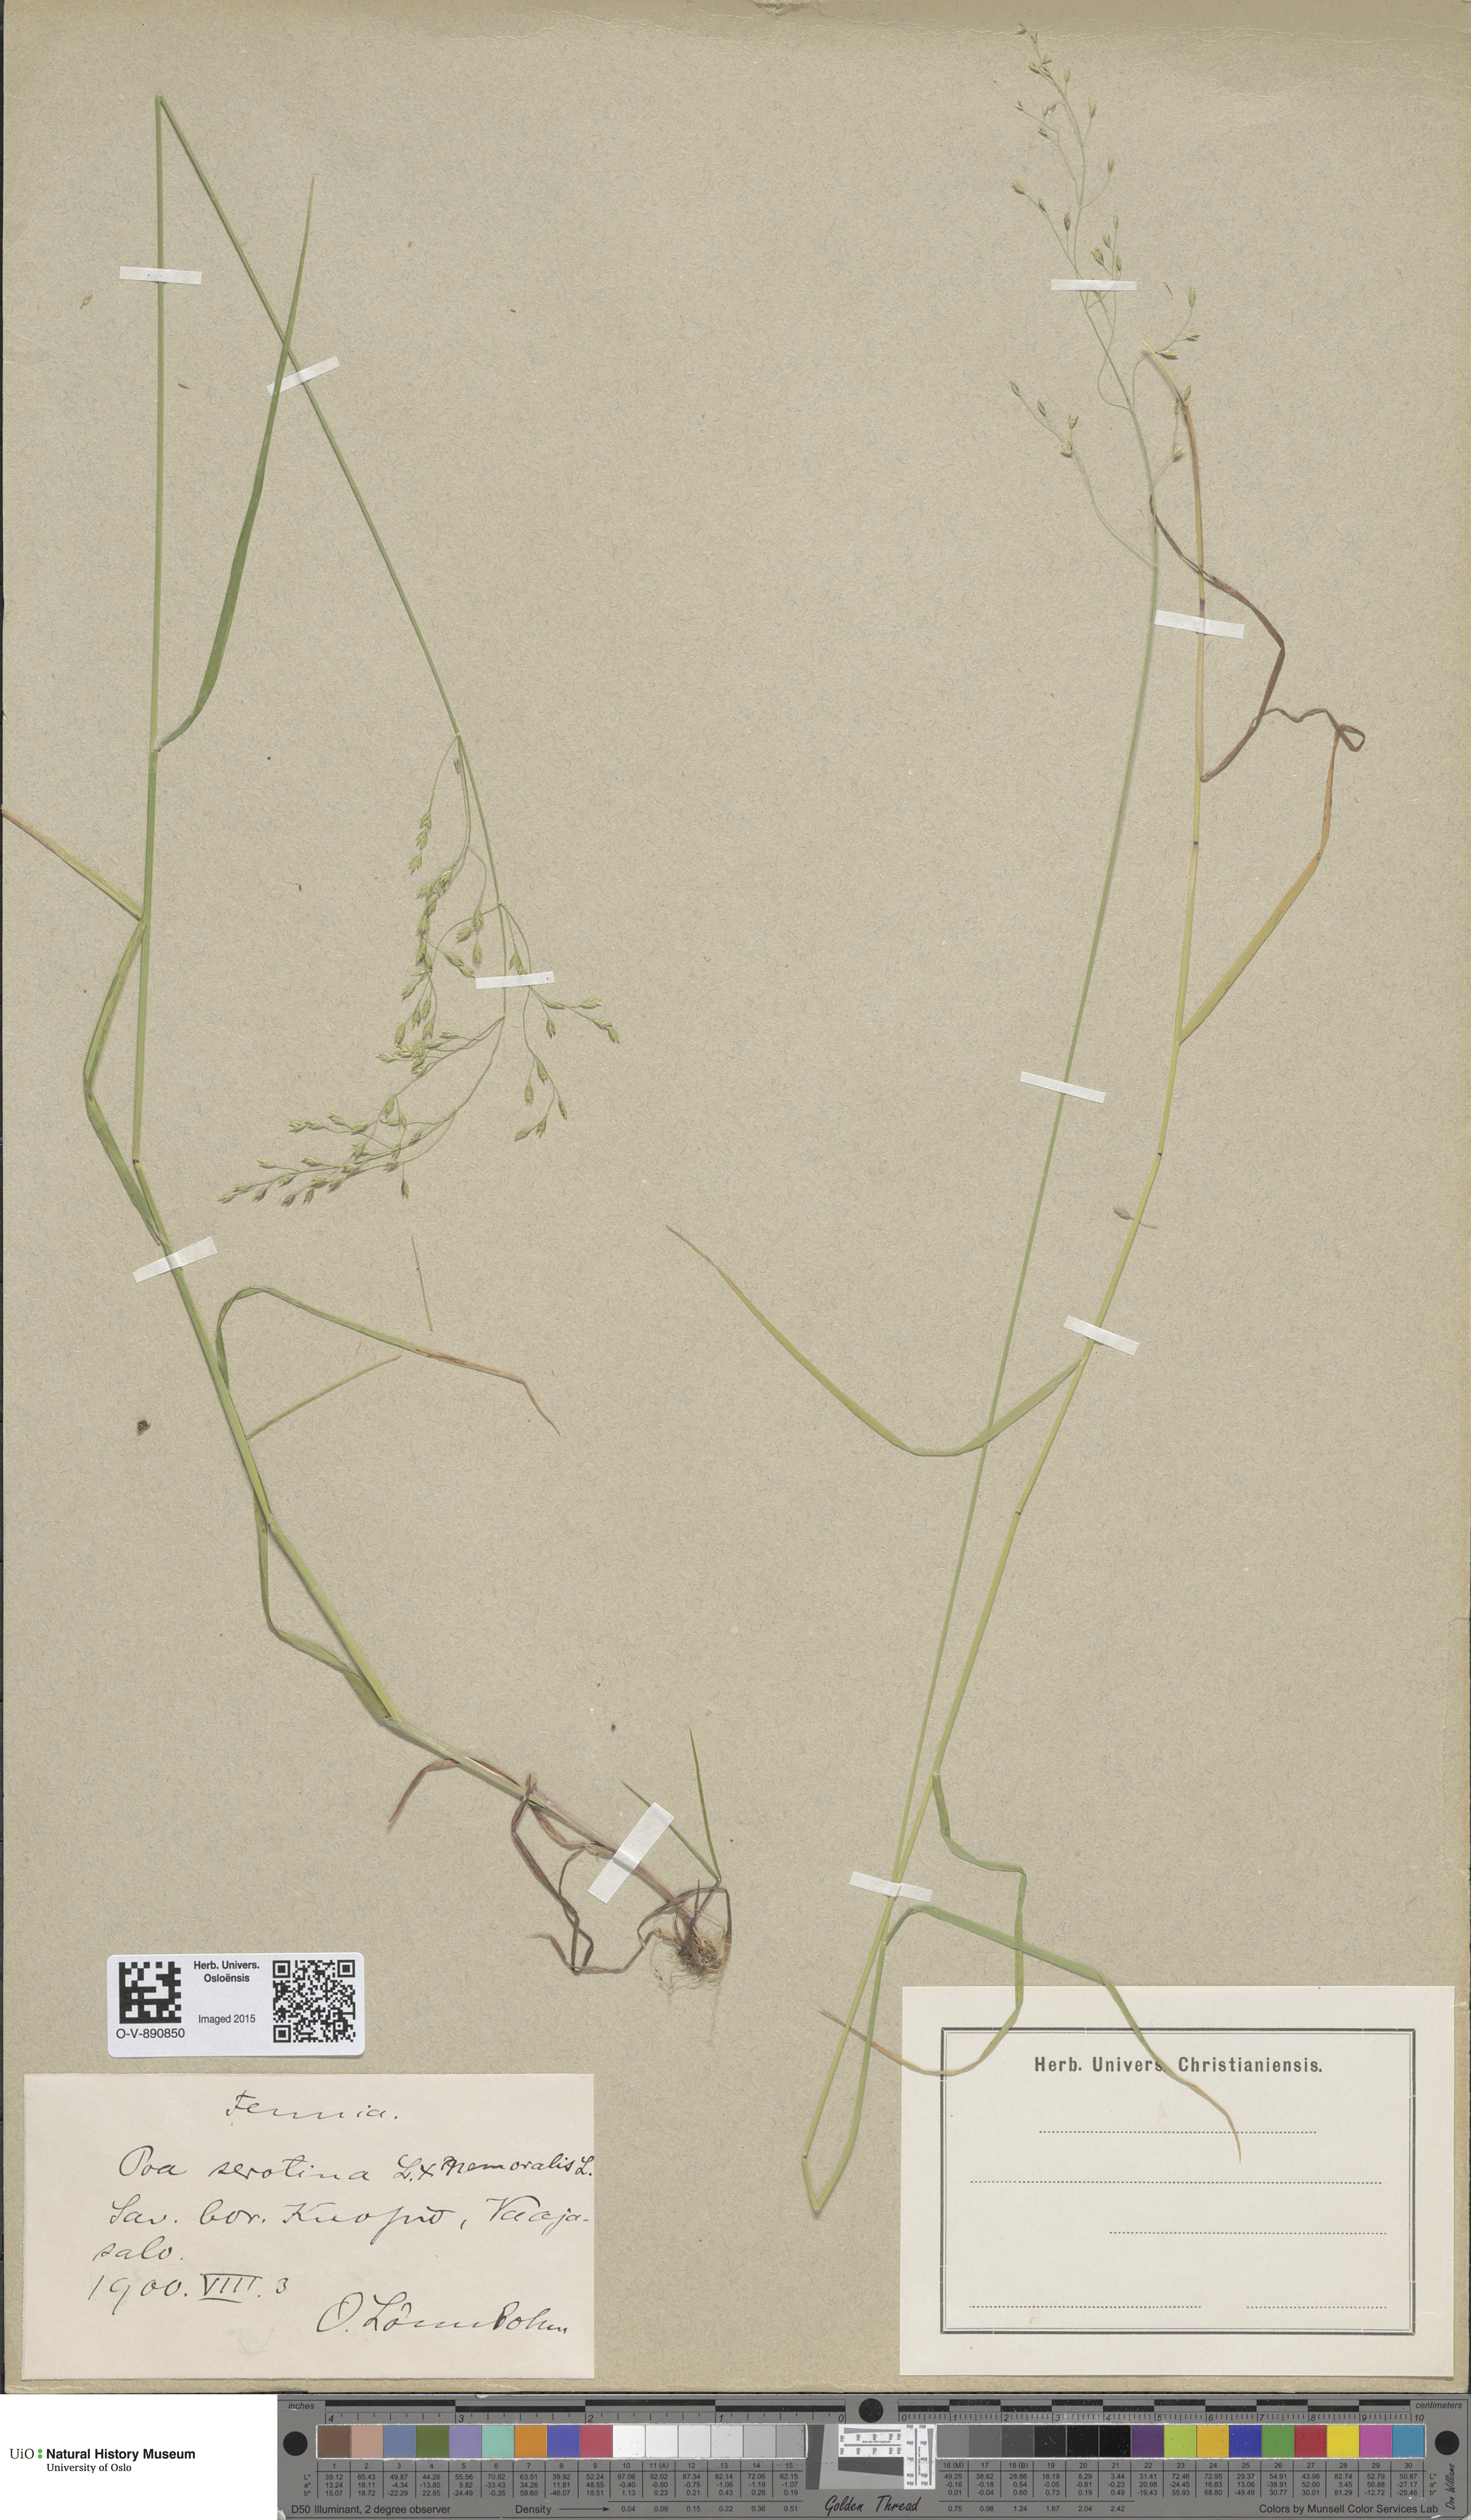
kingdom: Plantae
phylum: Tracheophyta
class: Liliopsida
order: Poales
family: Poaceae
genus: Poa
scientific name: Poa palustris
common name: Swamp meadow-grass
